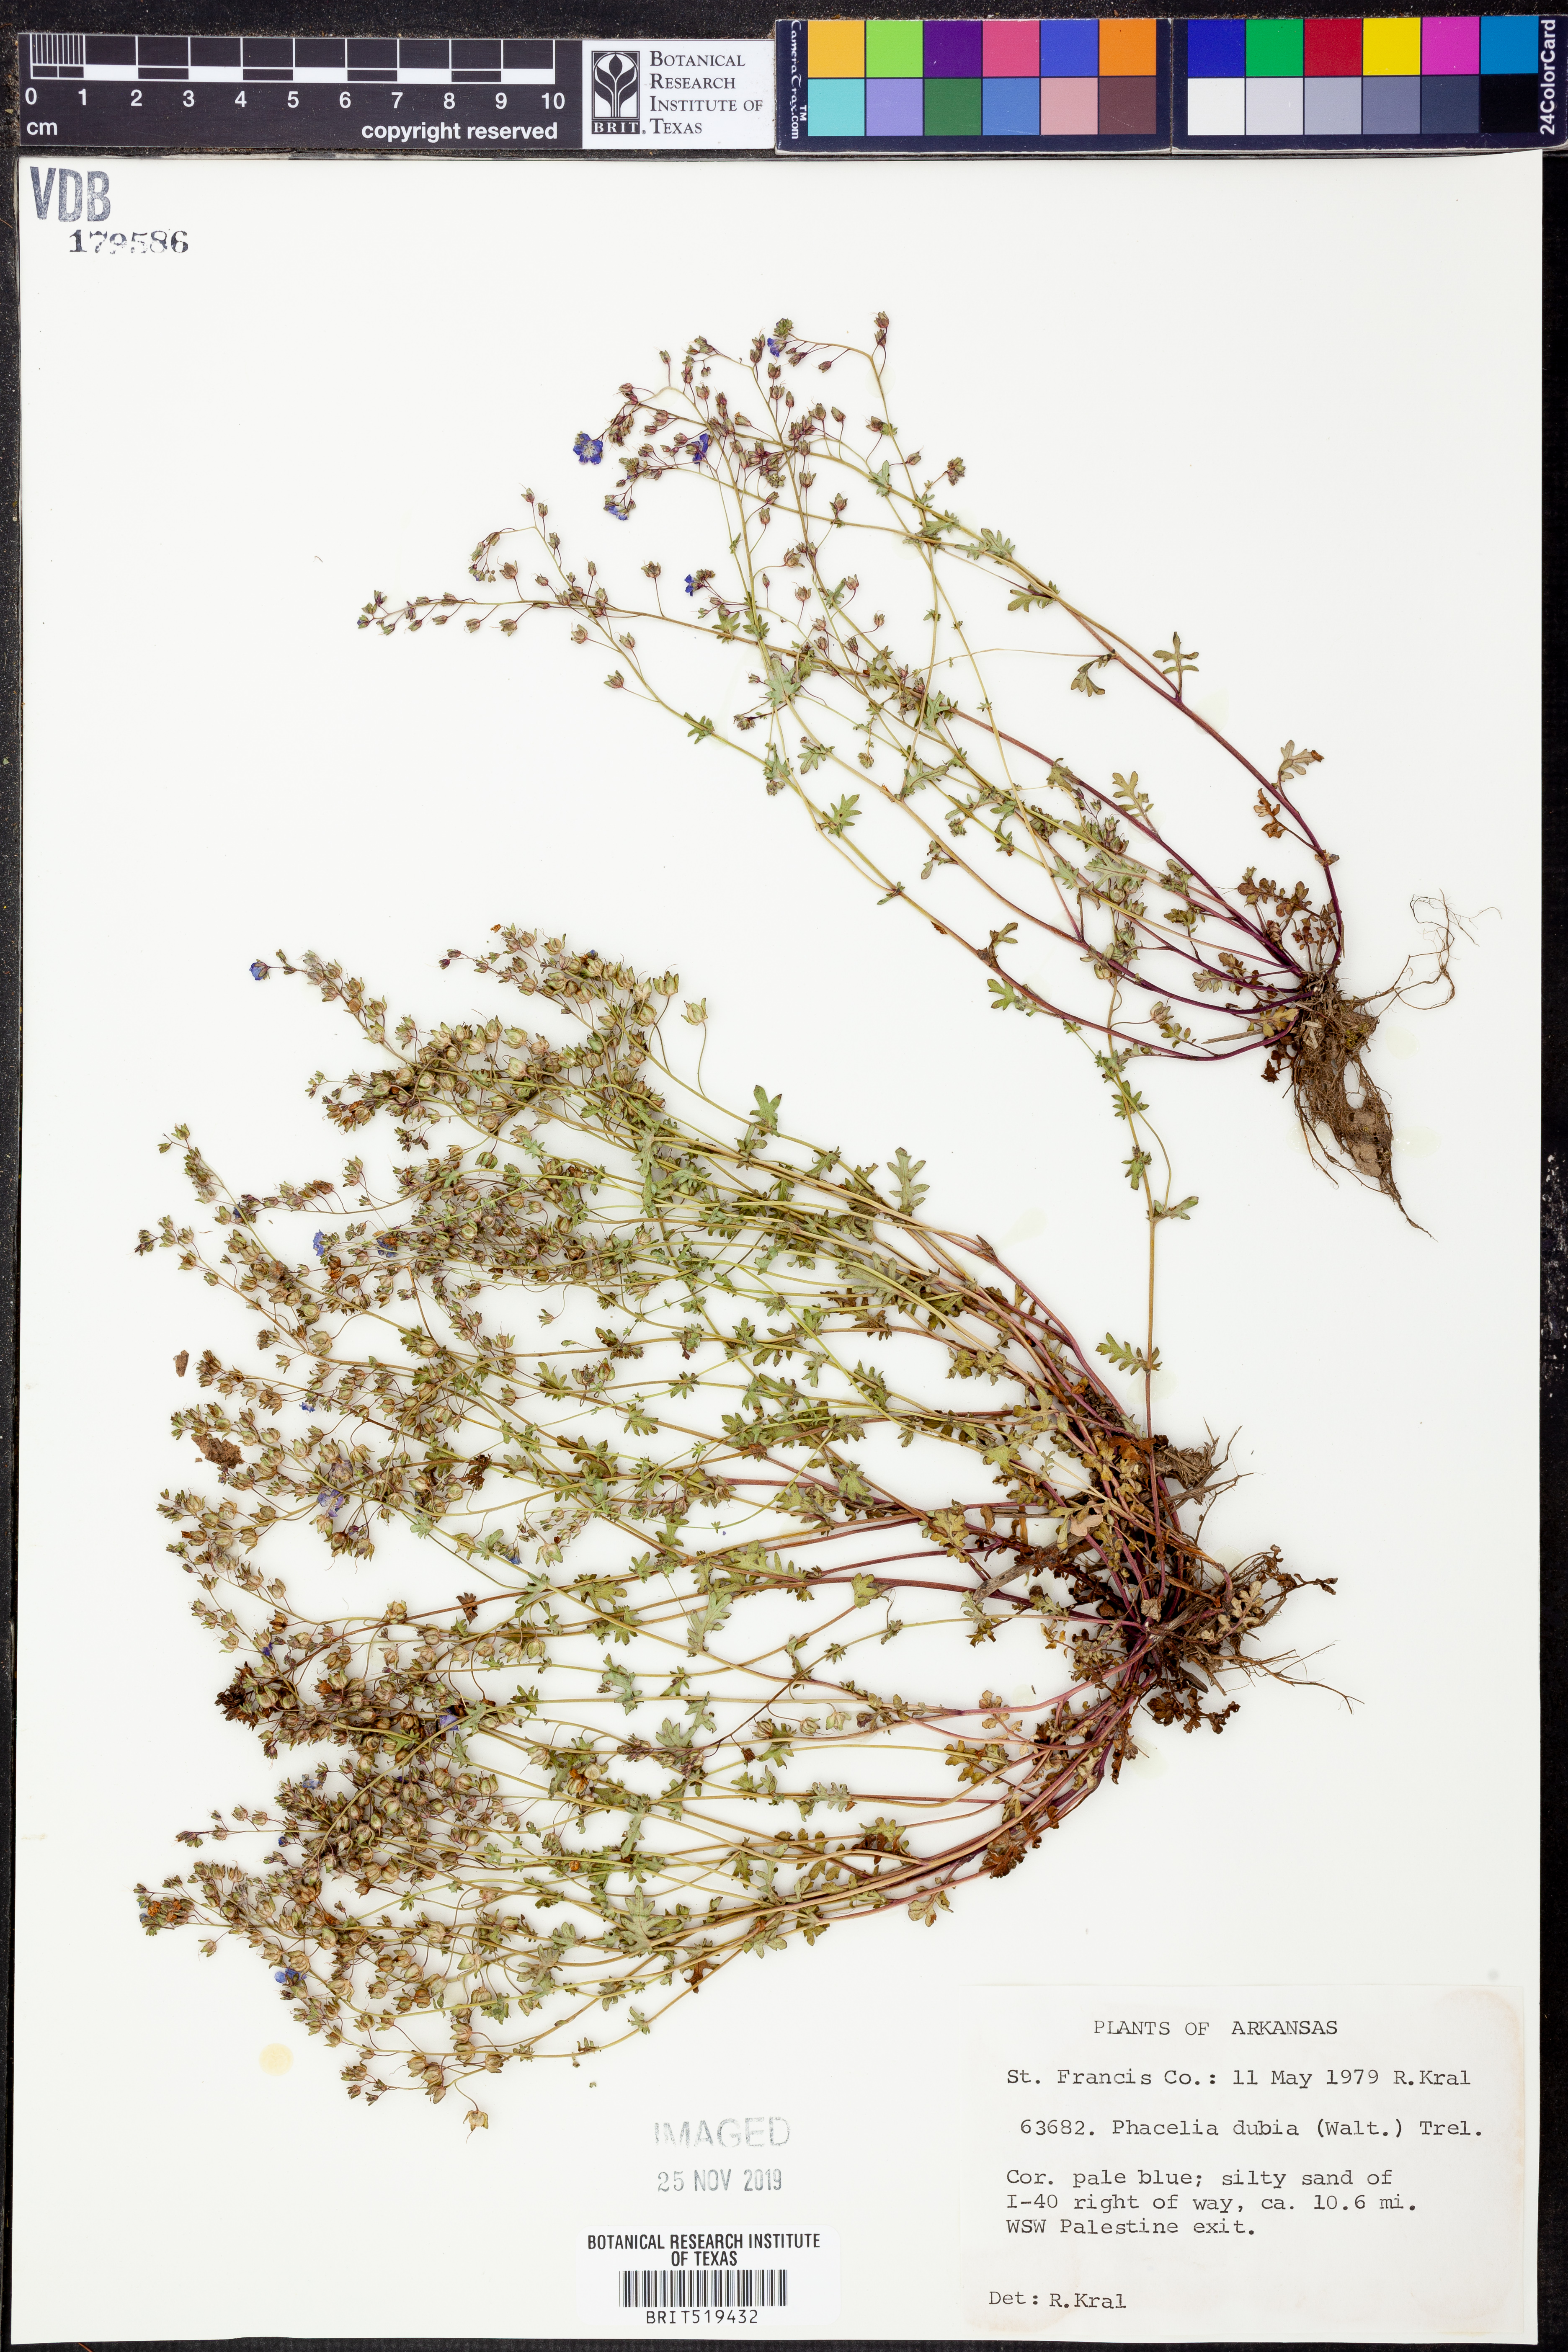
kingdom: Plantae
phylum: Tracheophyta
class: Magnoliopsida
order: Boraginales
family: Hydrophyllaceae
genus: Phacelia
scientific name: Phacelia dubia
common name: Appalachian phacelia
